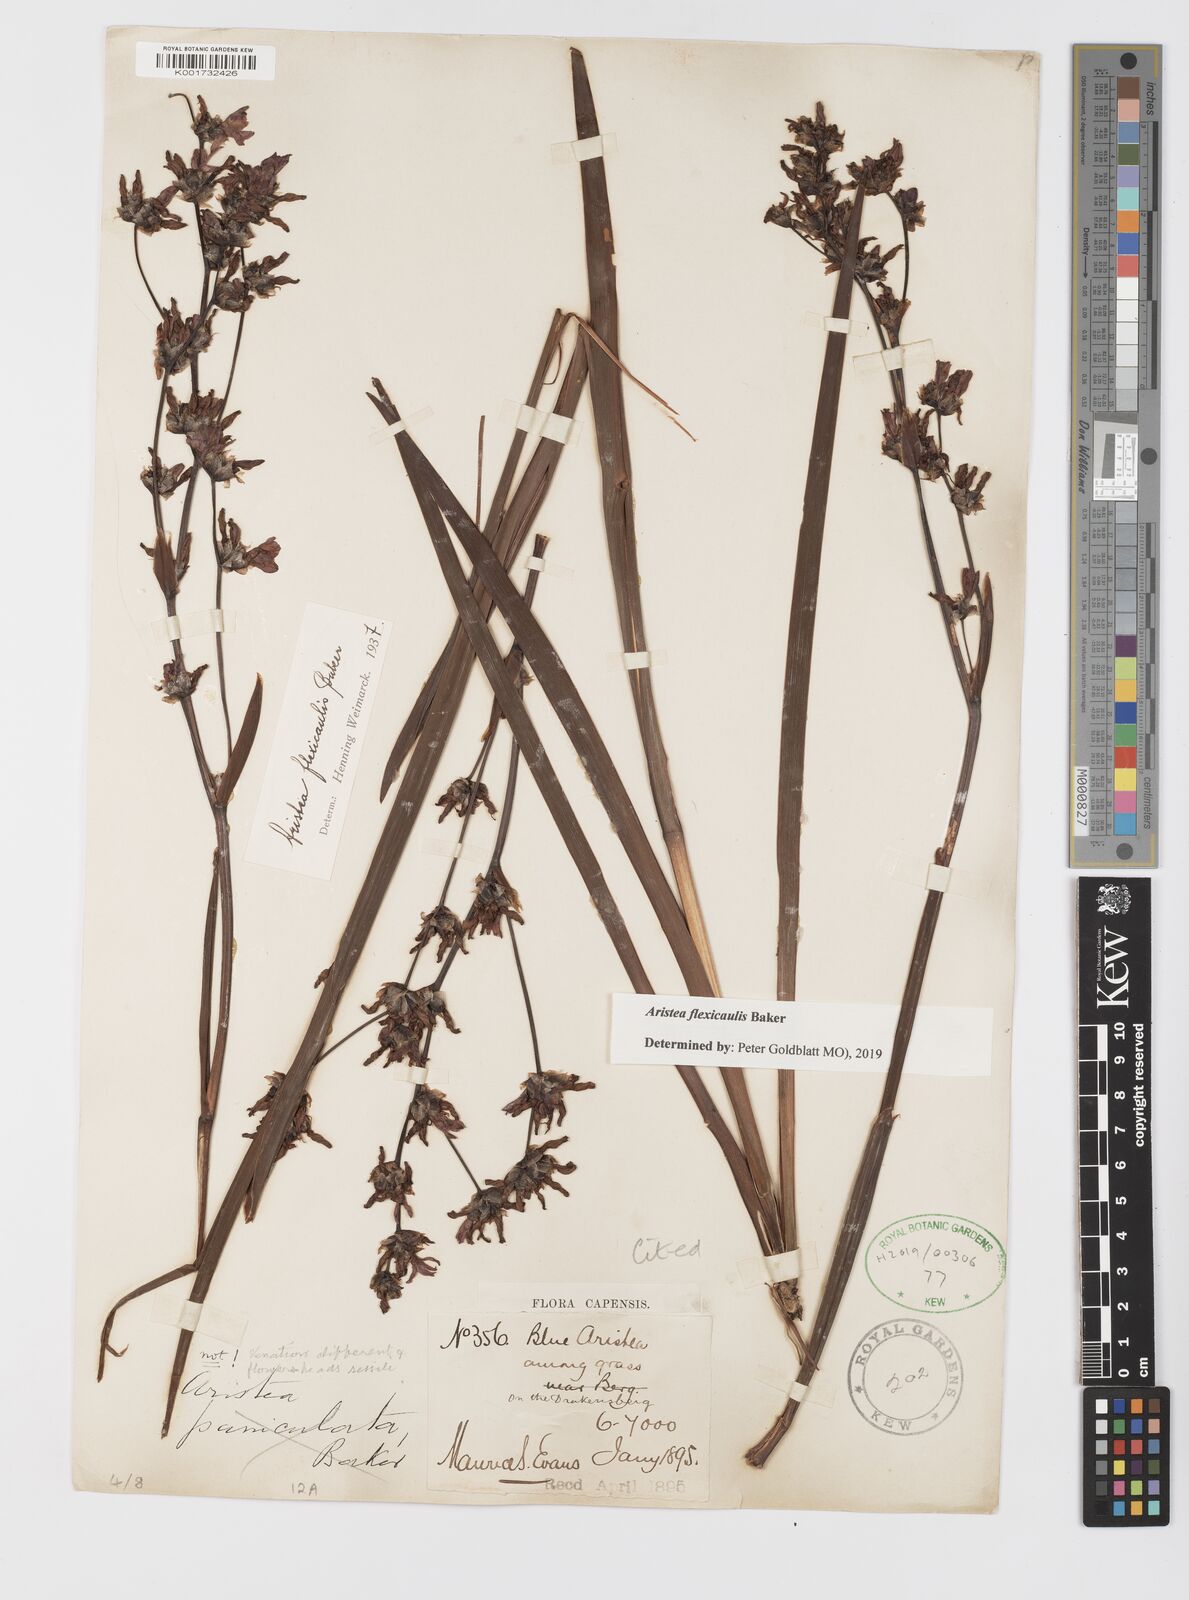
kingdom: Plantae
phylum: Tracheophyta
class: Liliopsida
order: Asparagales
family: Iridaceae
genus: Aristea
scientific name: Aristea flexicaulis
